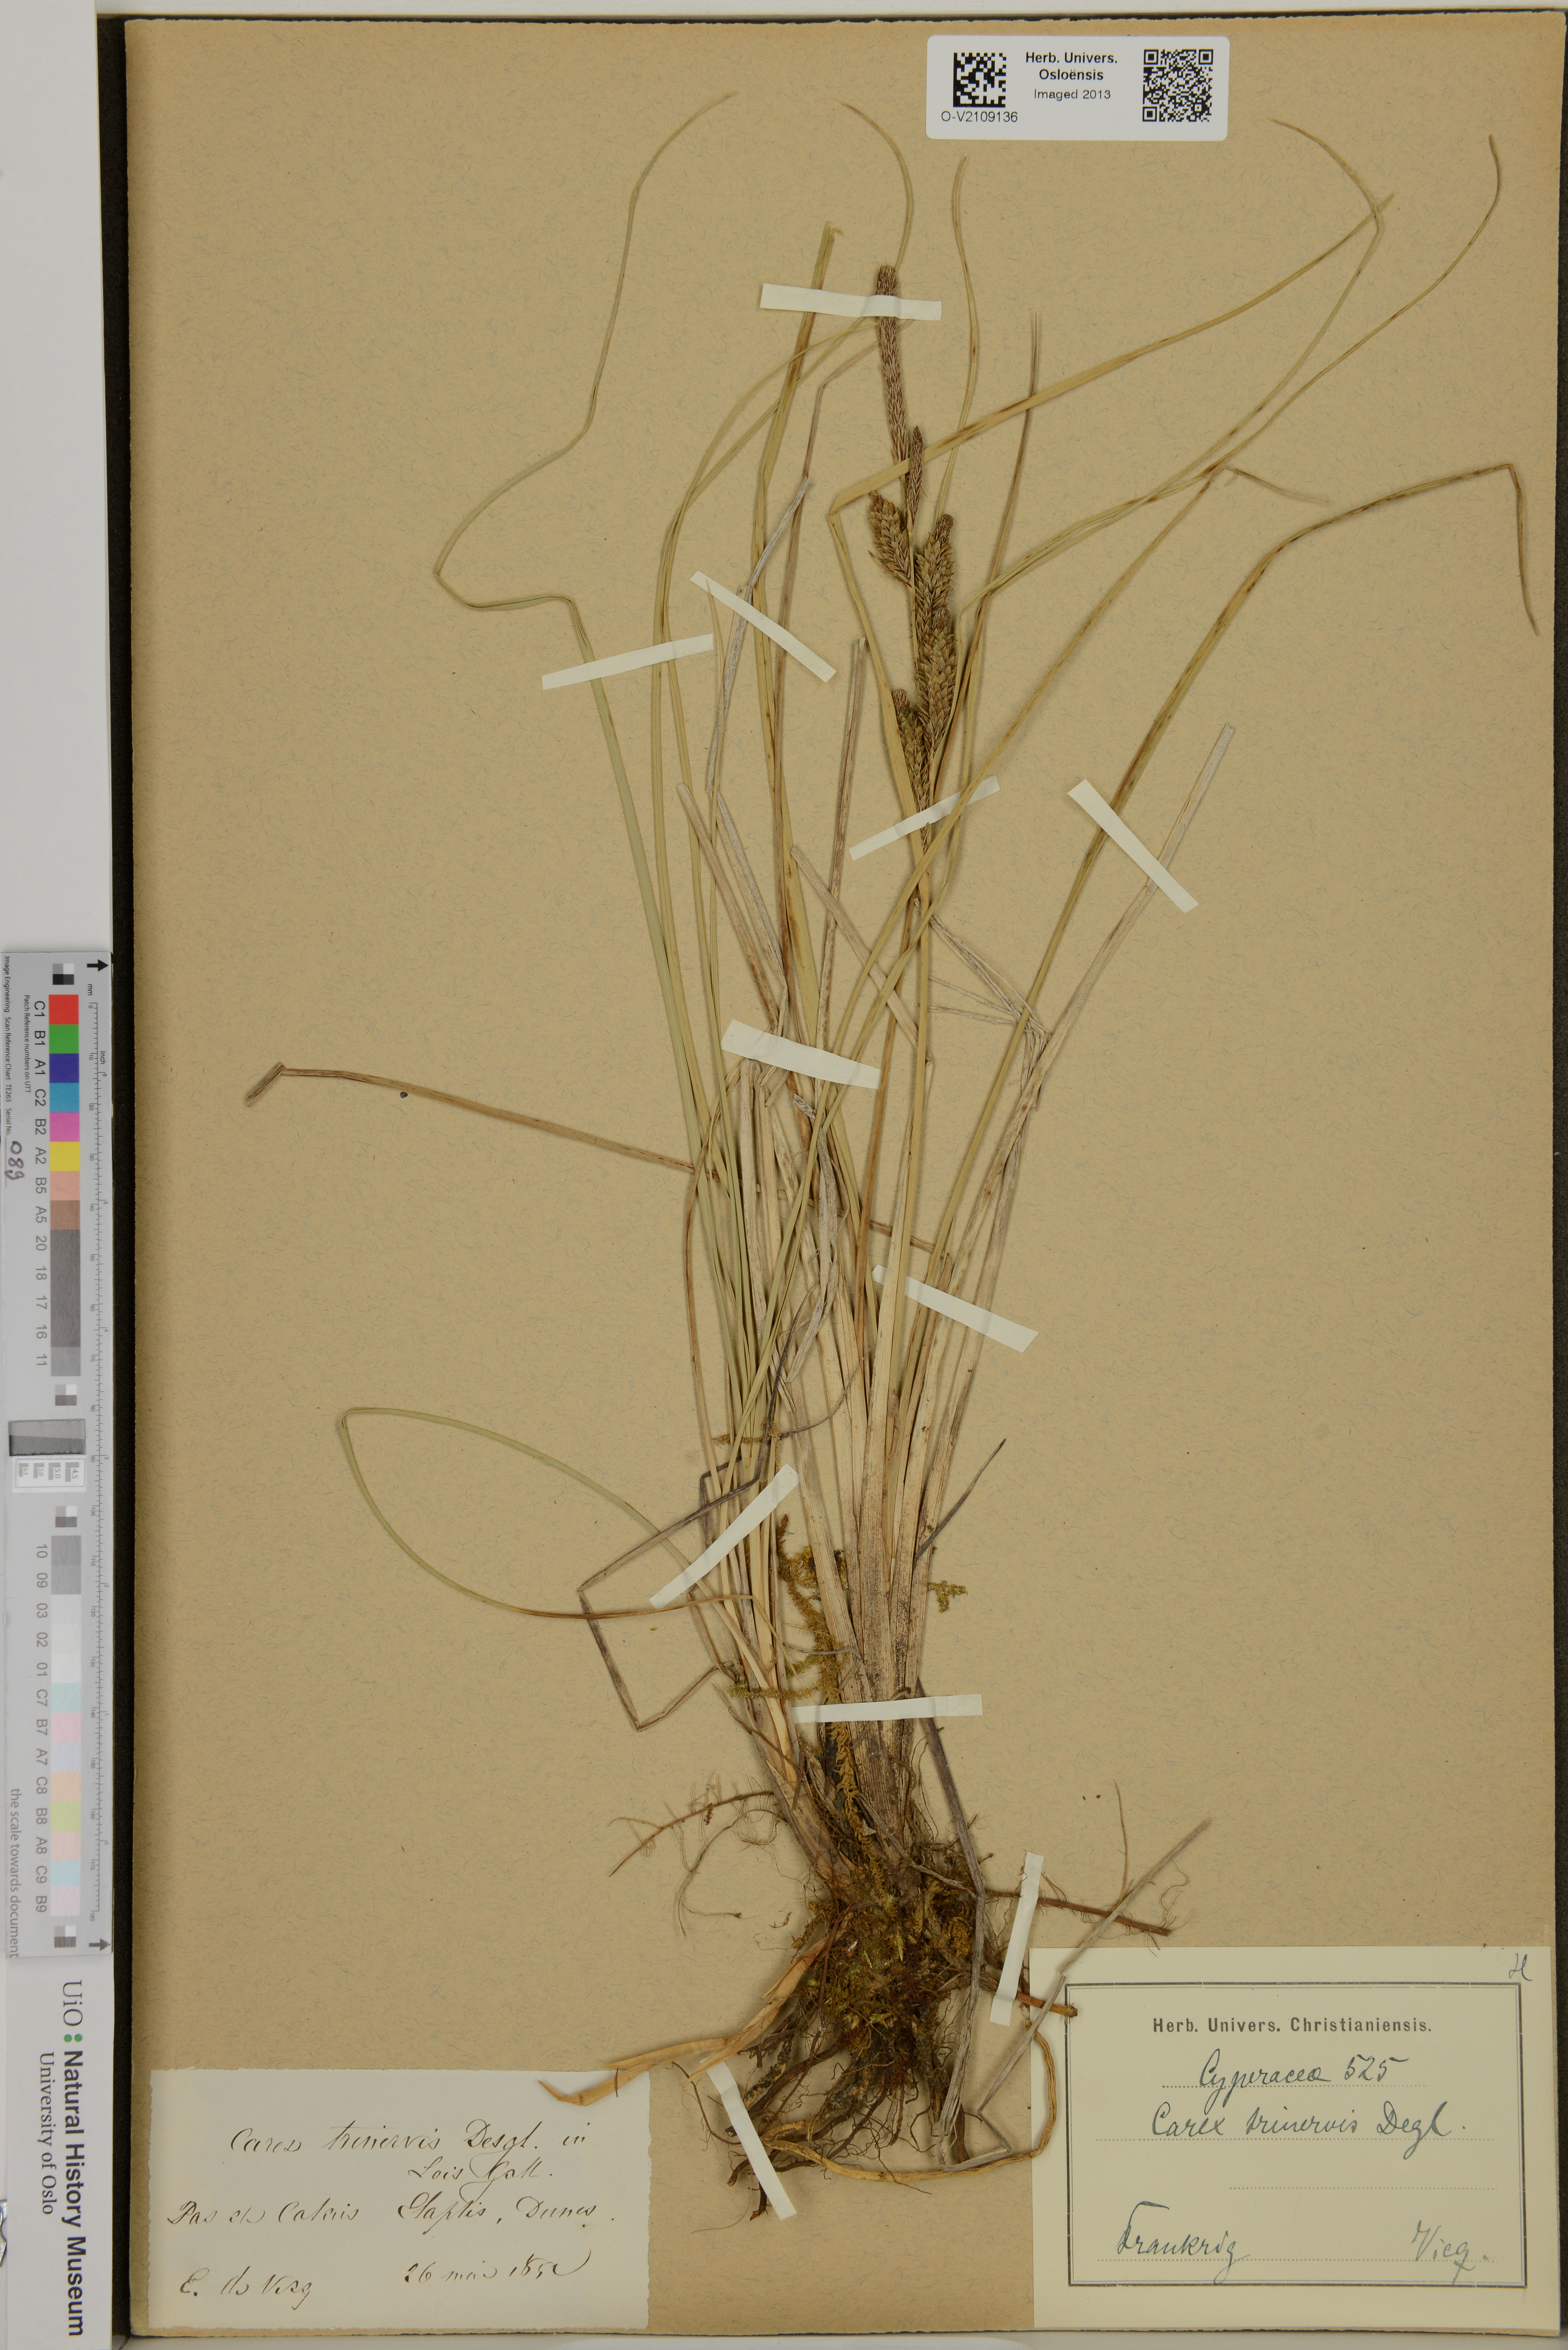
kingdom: Plantae
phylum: Tracheophyta
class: Liliopsida
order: Poales
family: Cyperaceae
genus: Carex
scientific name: Carex trinervis
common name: Three-nerved sedge
